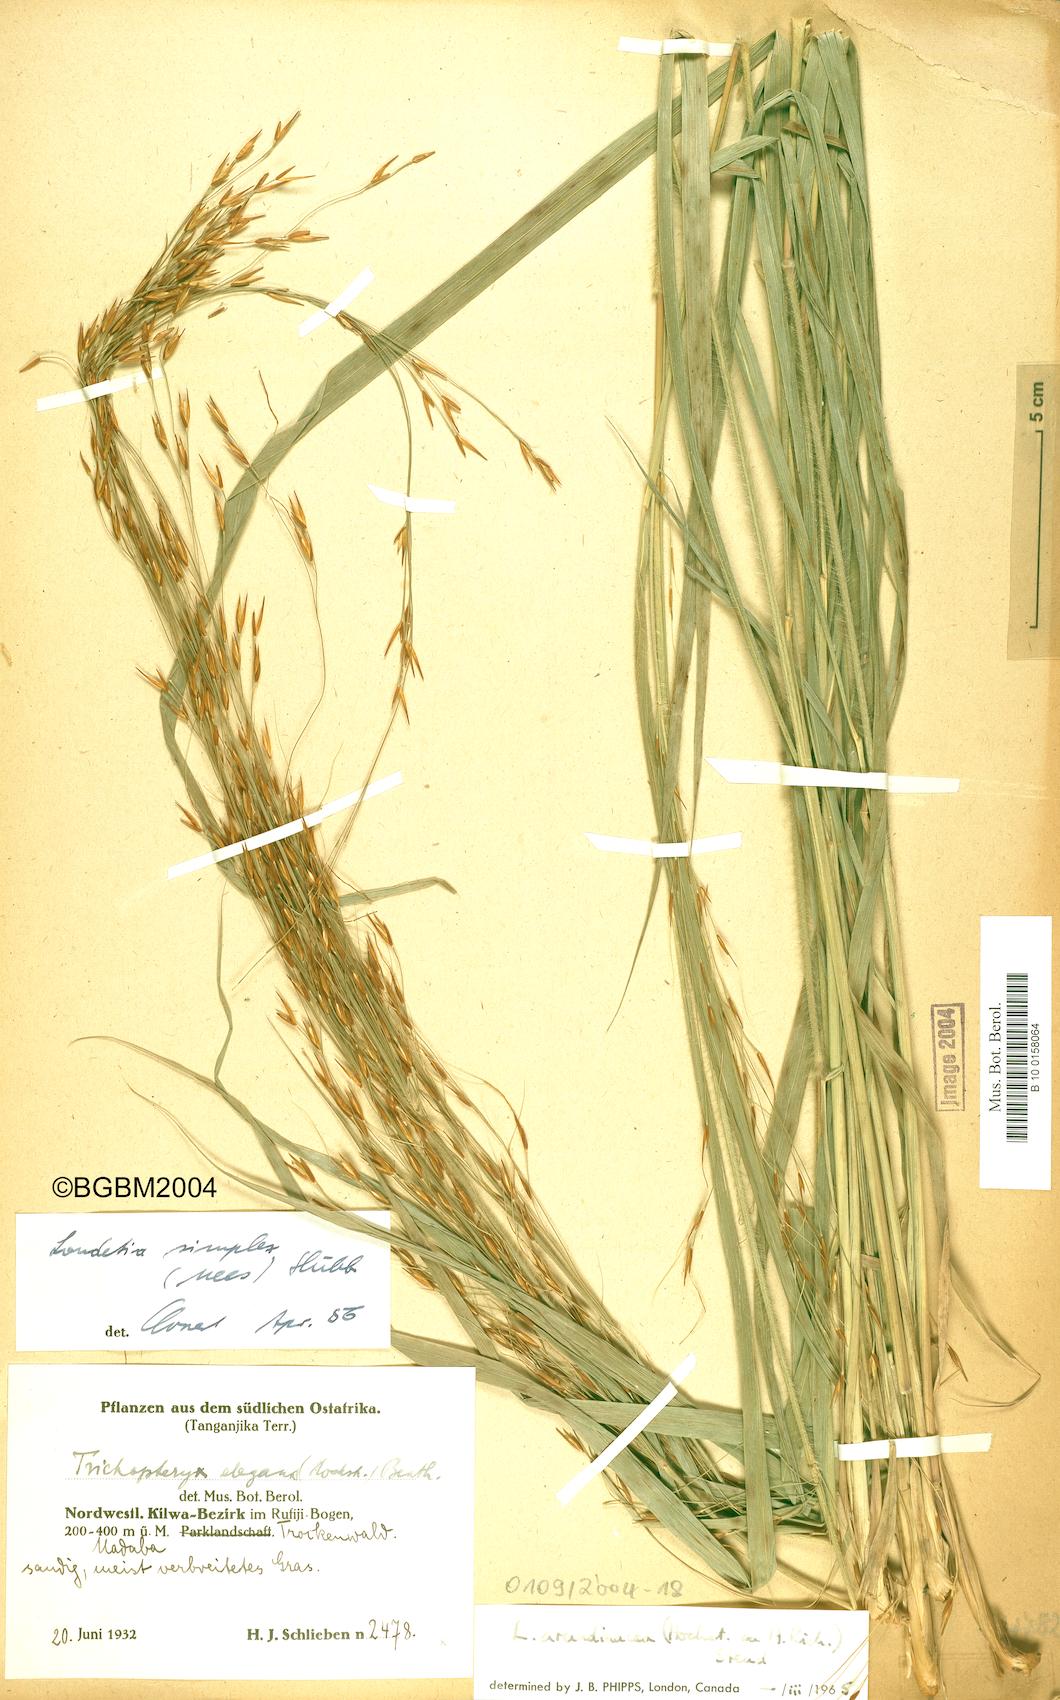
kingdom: Plantae
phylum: Tracheophyta
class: Liliopsida
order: Poales
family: Poaceae
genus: Loudetia
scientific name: Loudetia arundinacea
